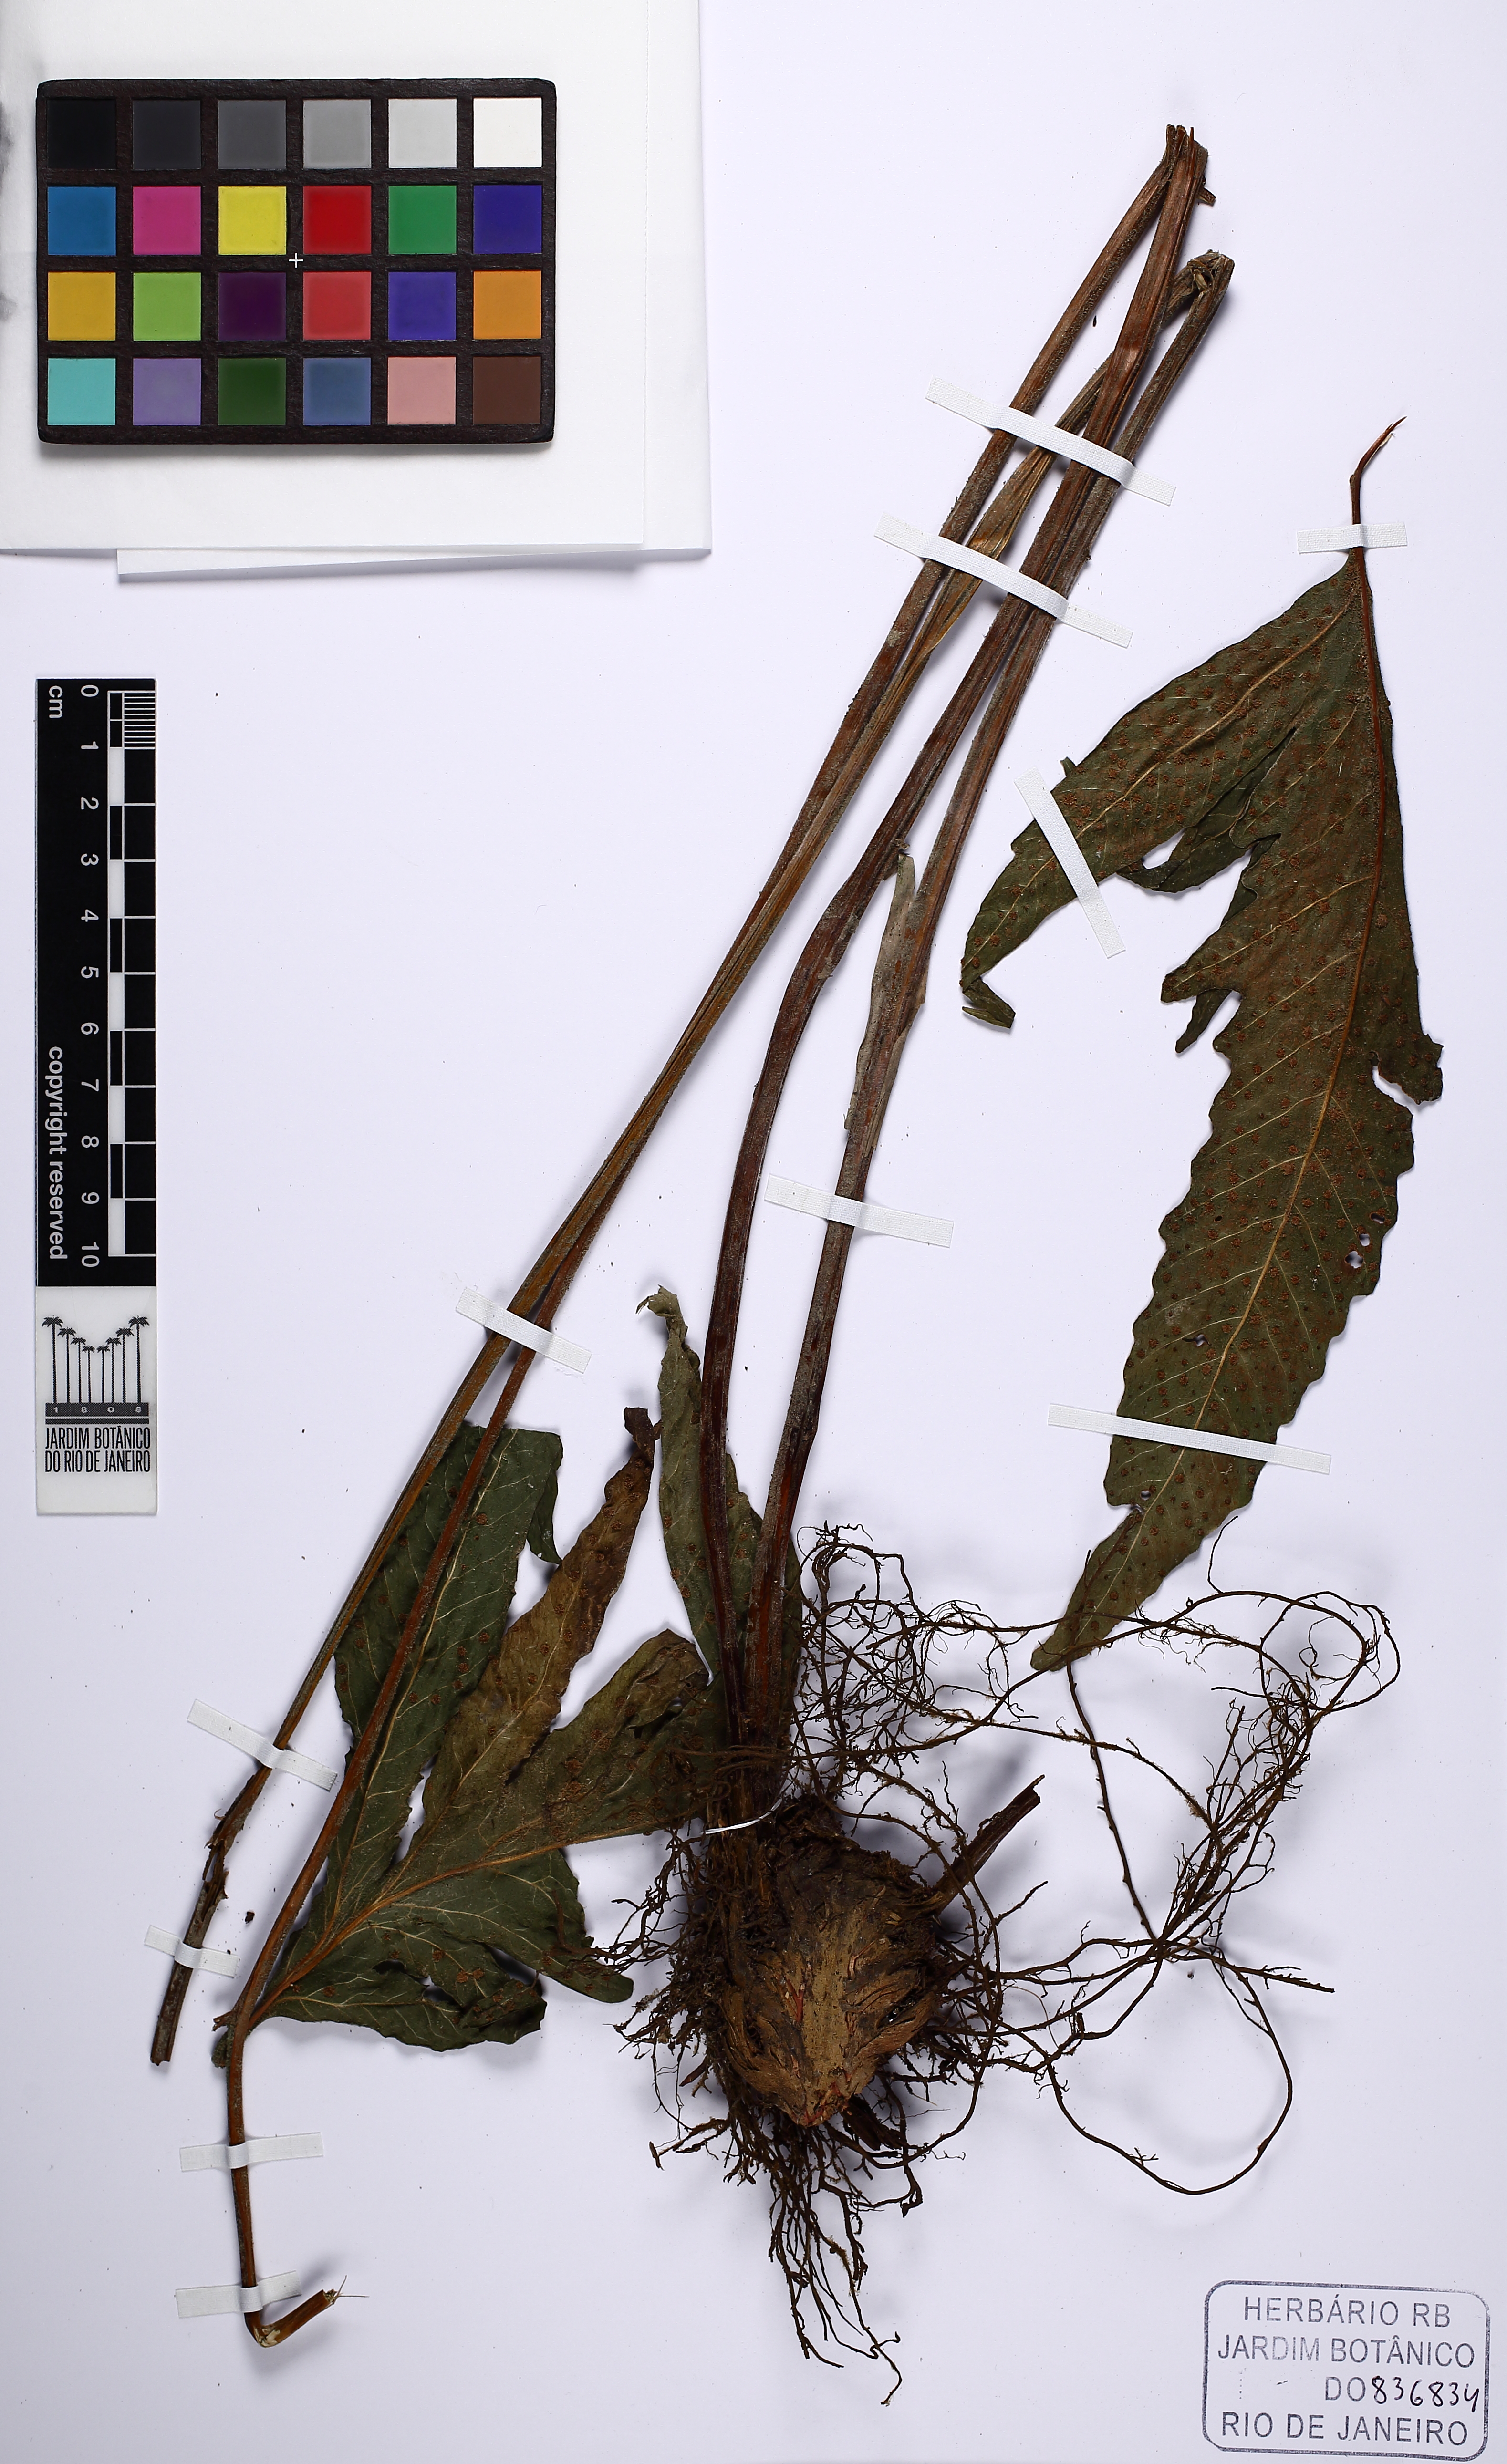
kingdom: Plantae
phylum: Tracheophyta
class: Polypodiopsida
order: Polypodiales
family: Tectariaceae
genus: Tectaria
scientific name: Tectaria pilosa
